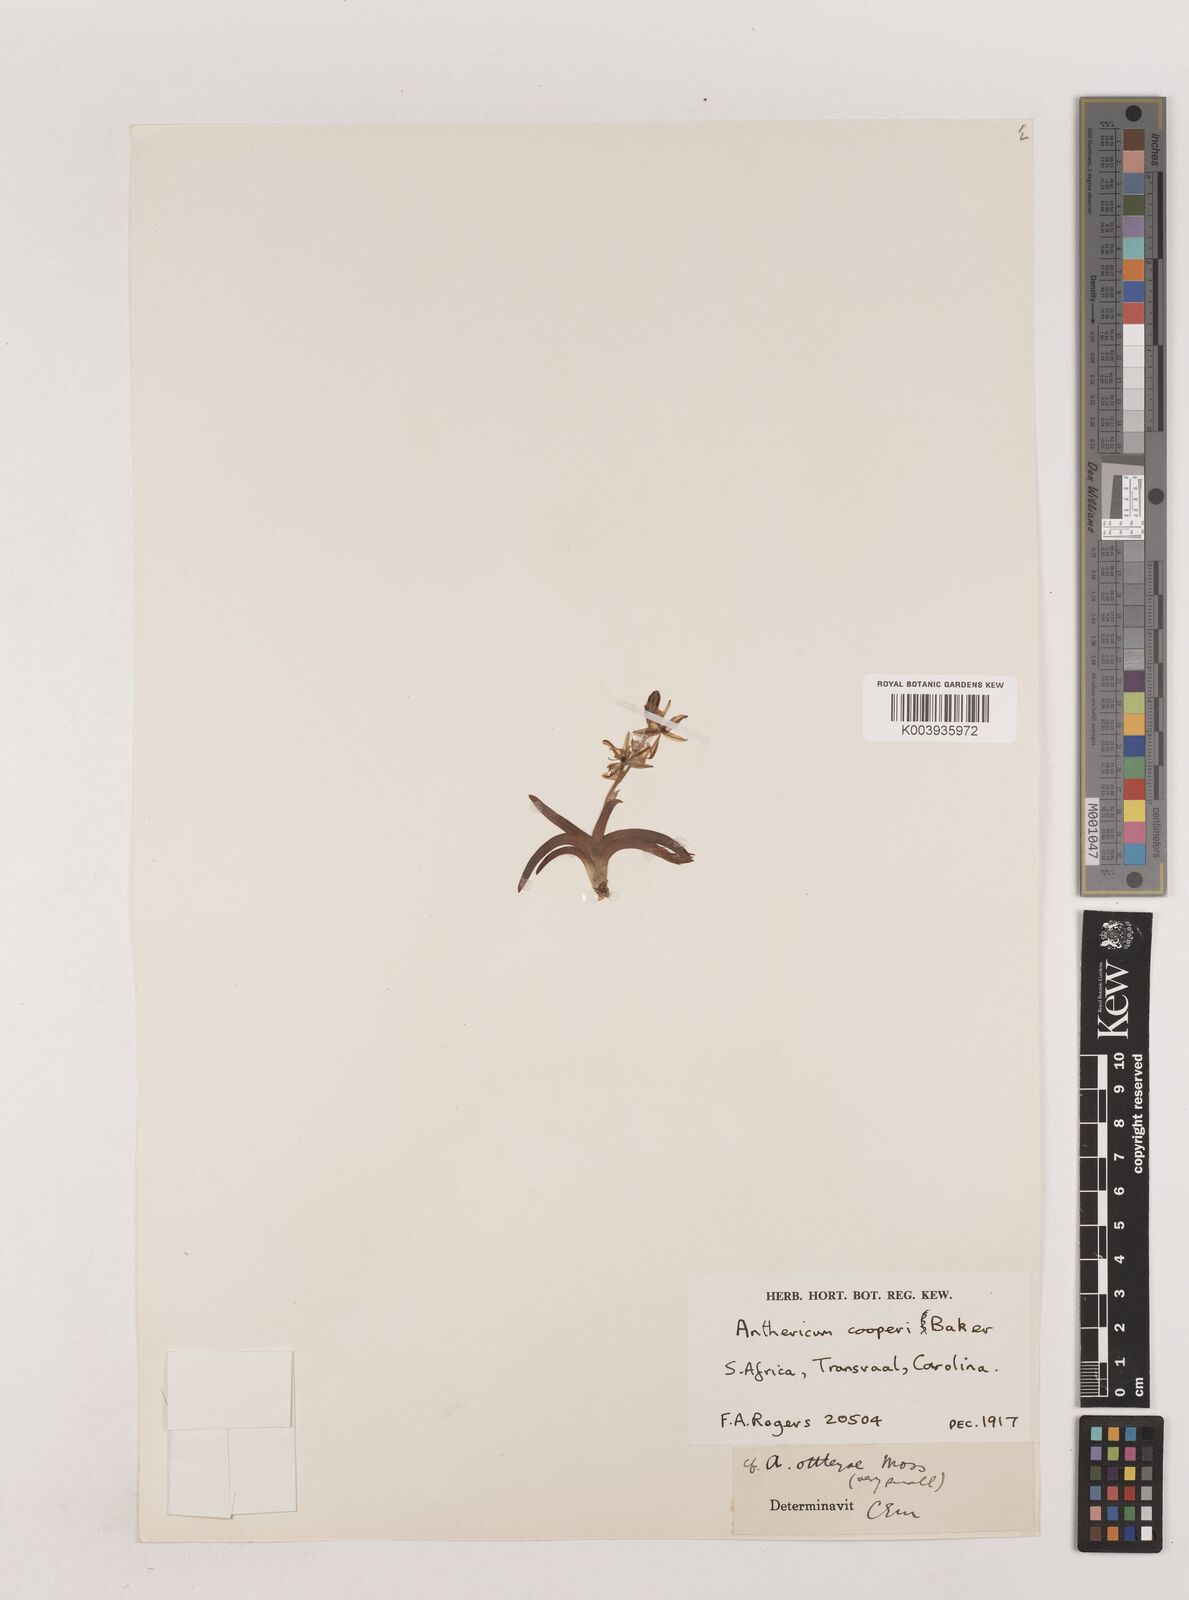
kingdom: Plantae
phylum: Tracheophyta
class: Liliopsida
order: Asparagales
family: Asparagaceae
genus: Chlorophytum
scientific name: Chlorophytum cooperi
